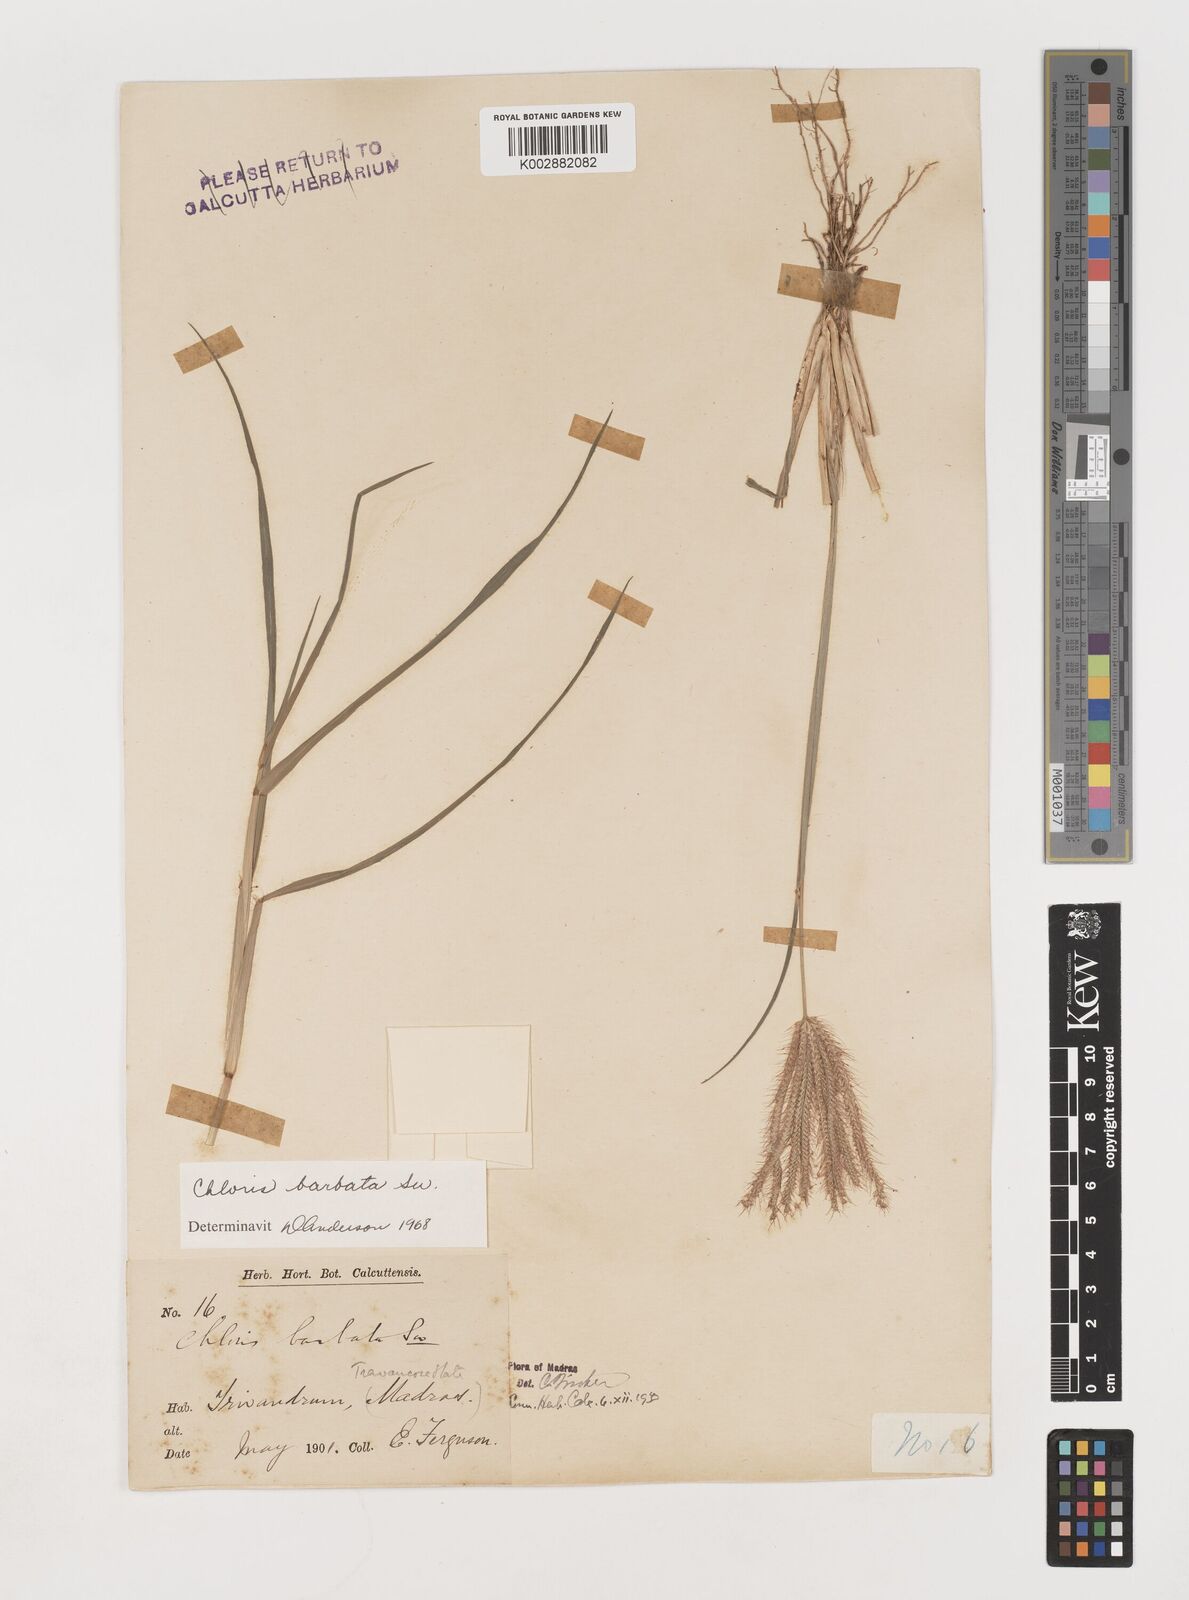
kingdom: Plantae
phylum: Tracheophyta
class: Liliopsida
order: Poales
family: Poaceae
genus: Chloris
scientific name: Chloris barbata
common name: Swollen fingergrass
